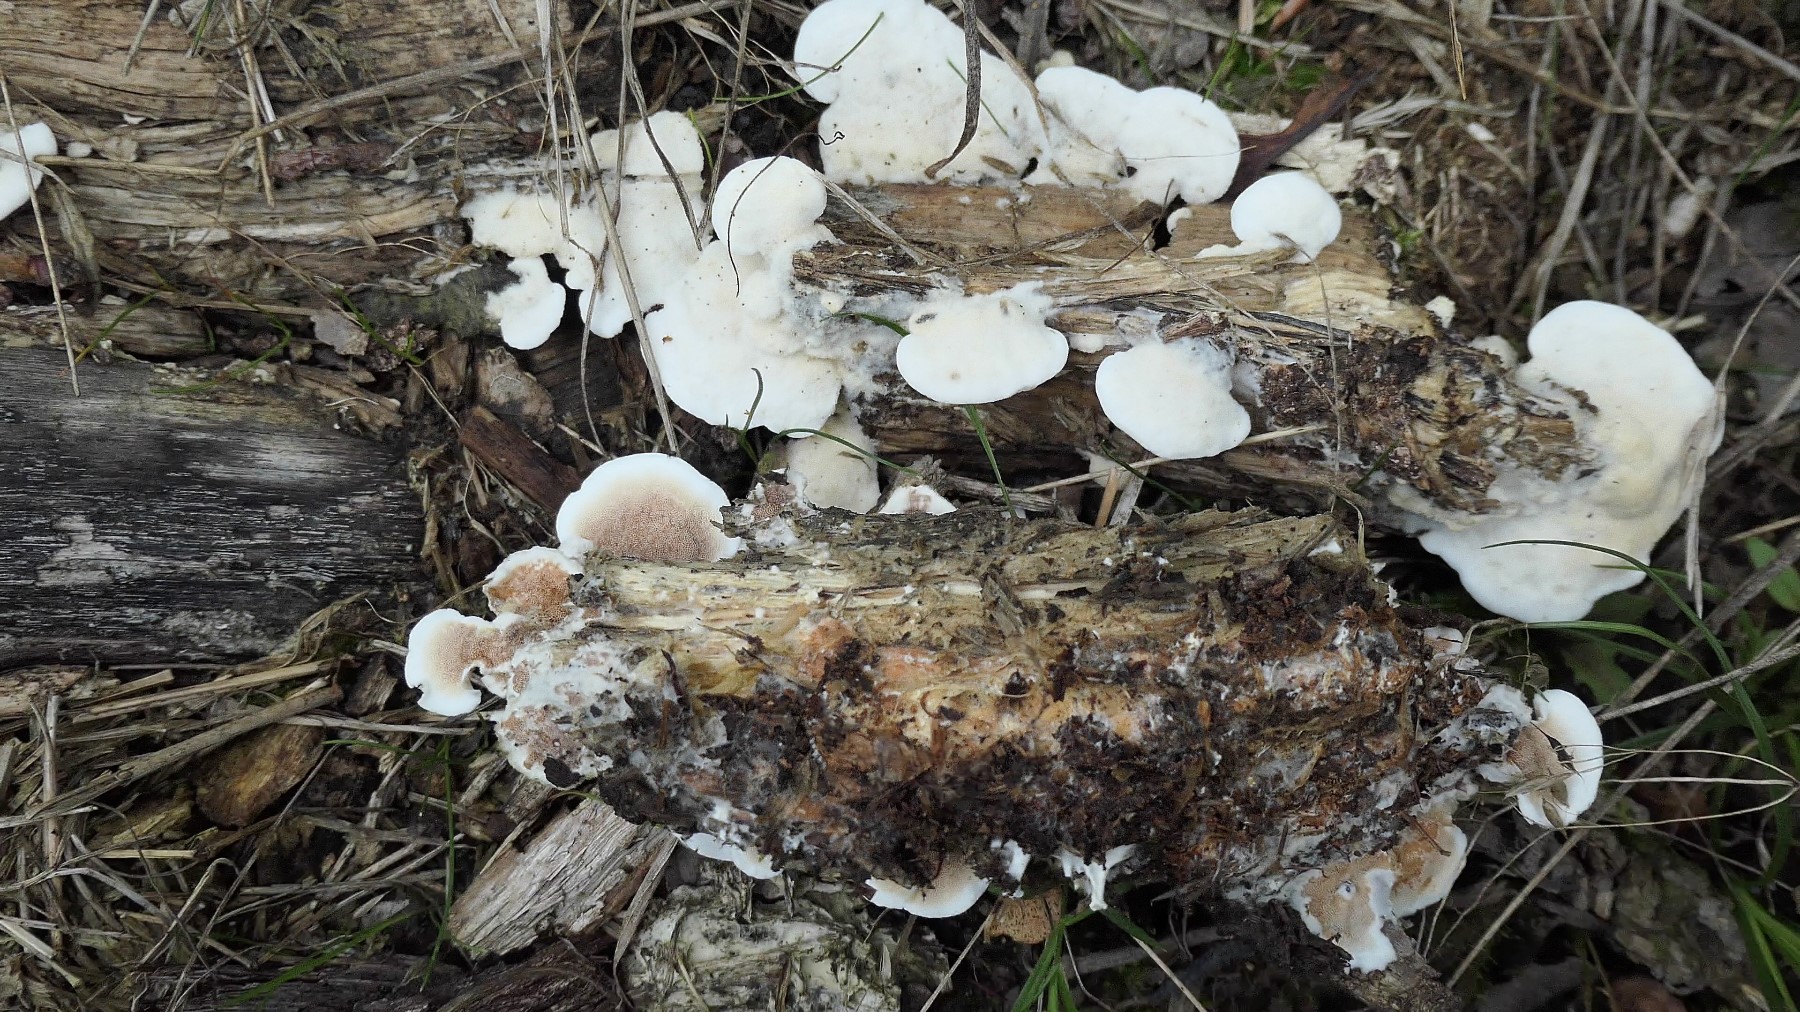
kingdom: Fungi
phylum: Basidiomycota
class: Agaricomycetes
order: Polyporales
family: Irpicaceae
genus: Vitreoporus
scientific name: Vitreoporus dichrous
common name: tofarvet foldporesvamp
